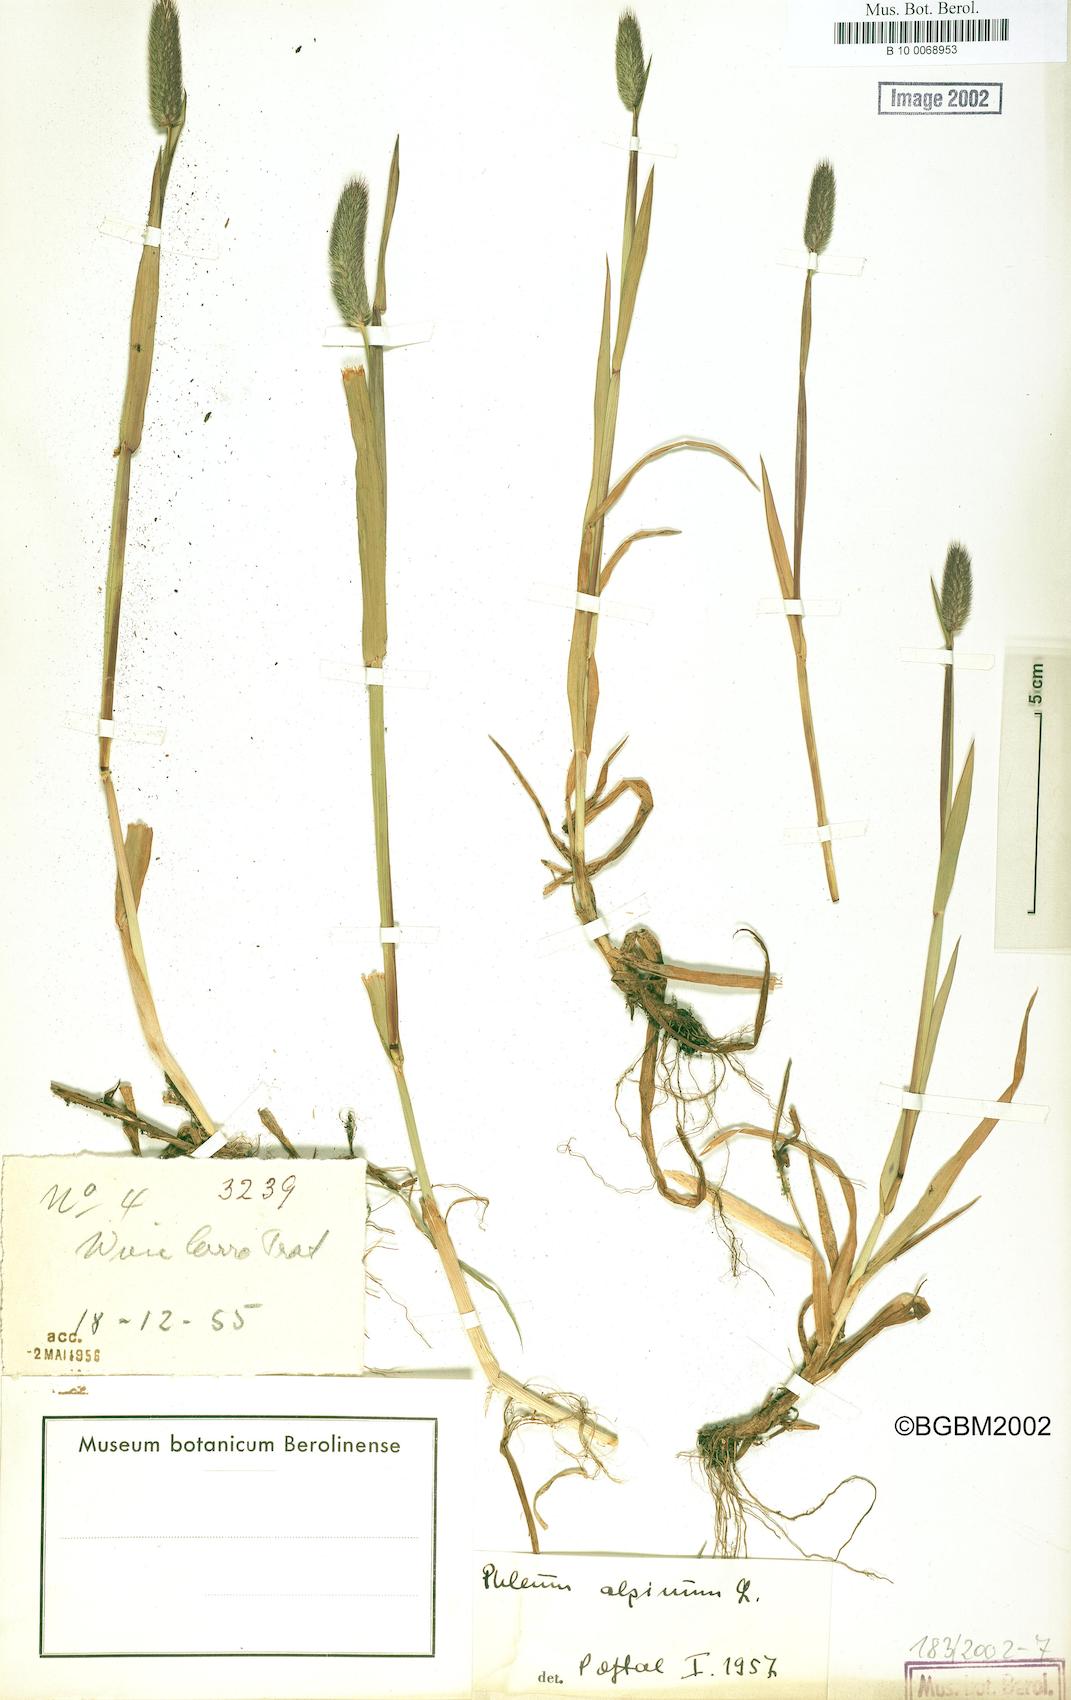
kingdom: Plantae
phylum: Tracheophyta
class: Liliopsida
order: Poales
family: Poaceae
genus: Phleum
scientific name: Phleum alpinum
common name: Alpine cat's-tail
